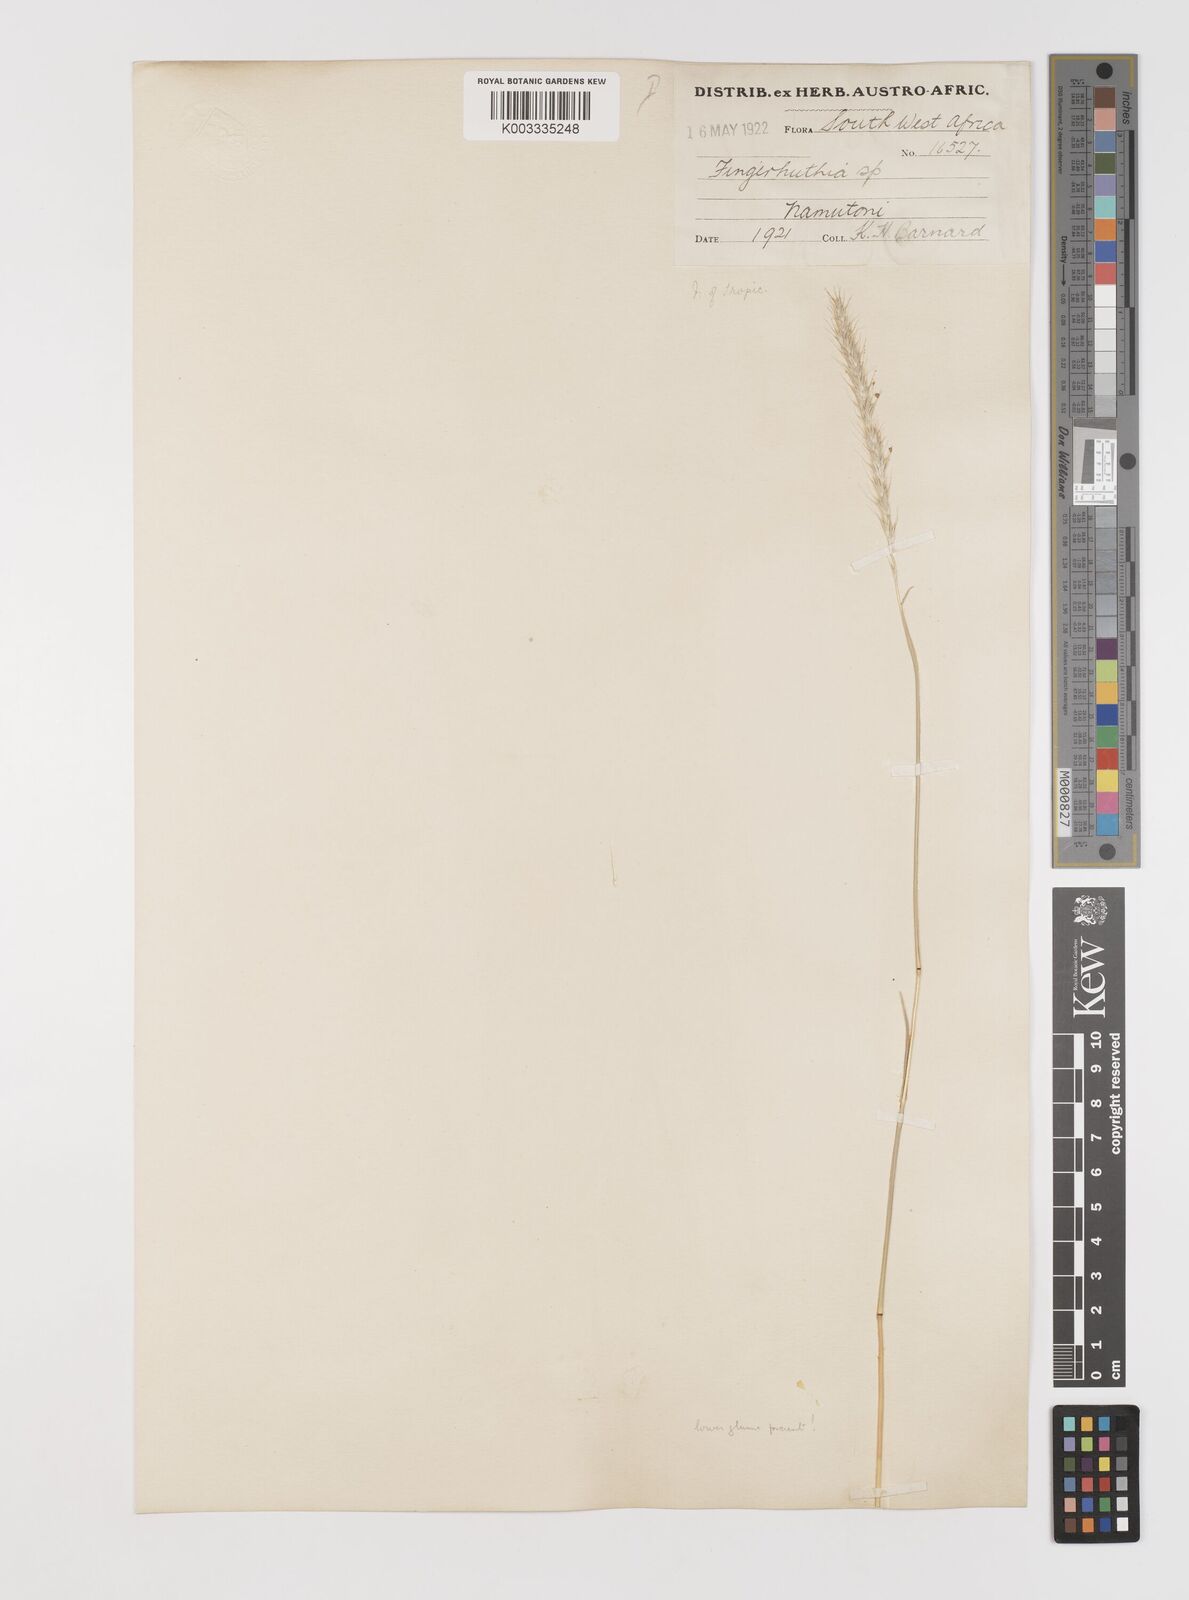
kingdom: Plantae
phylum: Tracheophyta
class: Liliopsida
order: Poales
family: Poaceae
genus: Monelytrum
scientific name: Monelytrum luederitzianum
